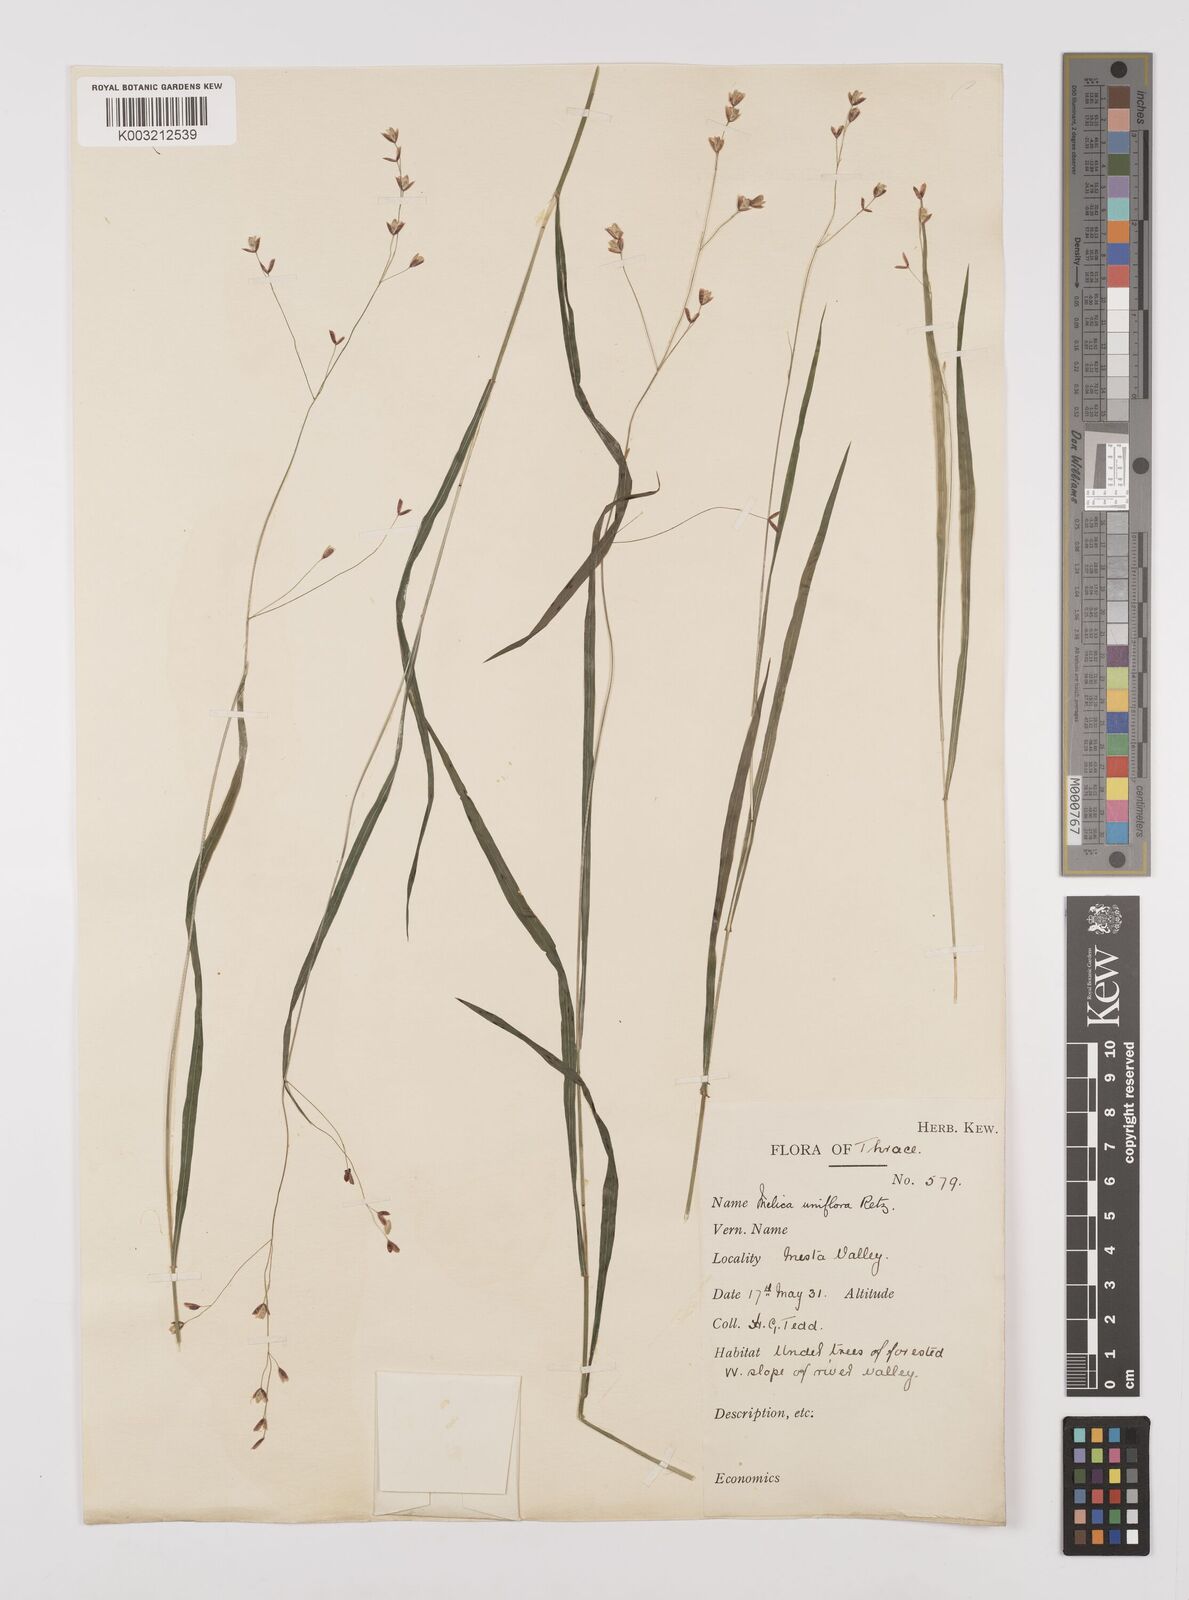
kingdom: Plantae
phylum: Tracheophyta
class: Liliopsida
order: Poales
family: Poaceae
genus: Melica
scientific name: Melica uniflora
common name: Wood melick
